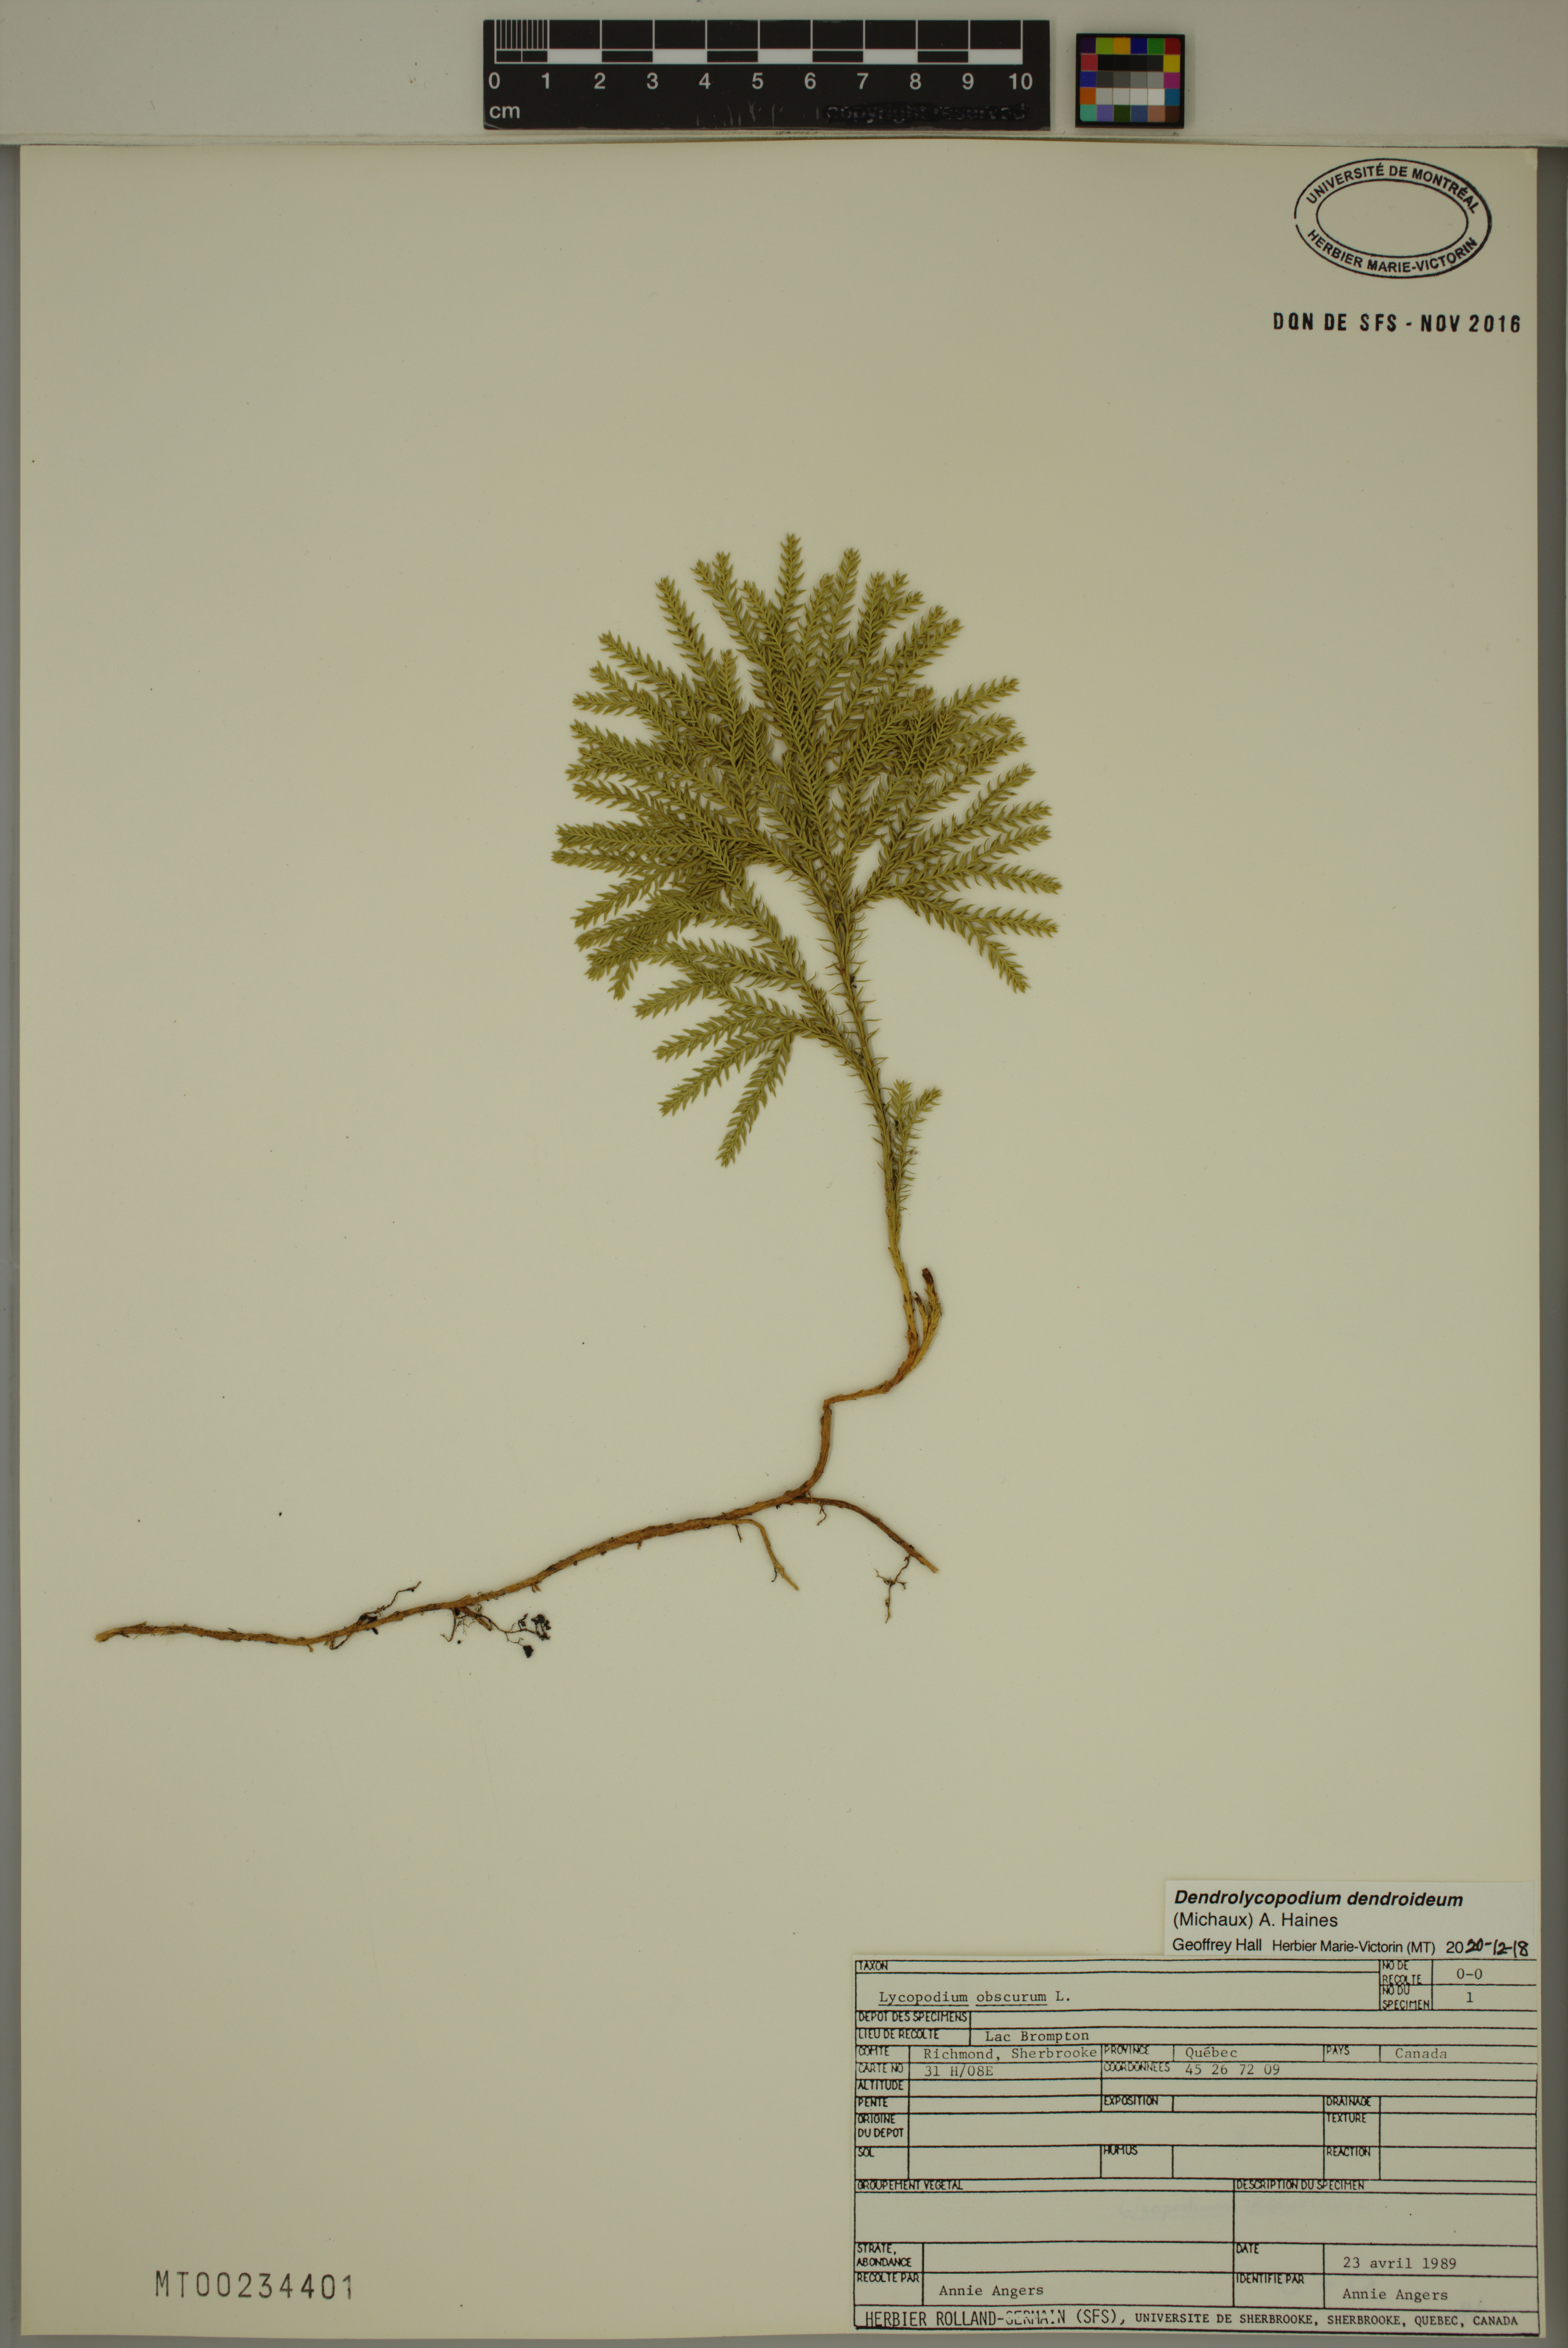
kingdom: Plantae
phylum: Tracheophyta
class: Lycopodiopsida
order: Lycopodiales
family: Lycopodiaceae
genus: Dendrolycopodium
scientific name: Dendrolycopodium dendroideum
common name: Northern tree-clubmoss
